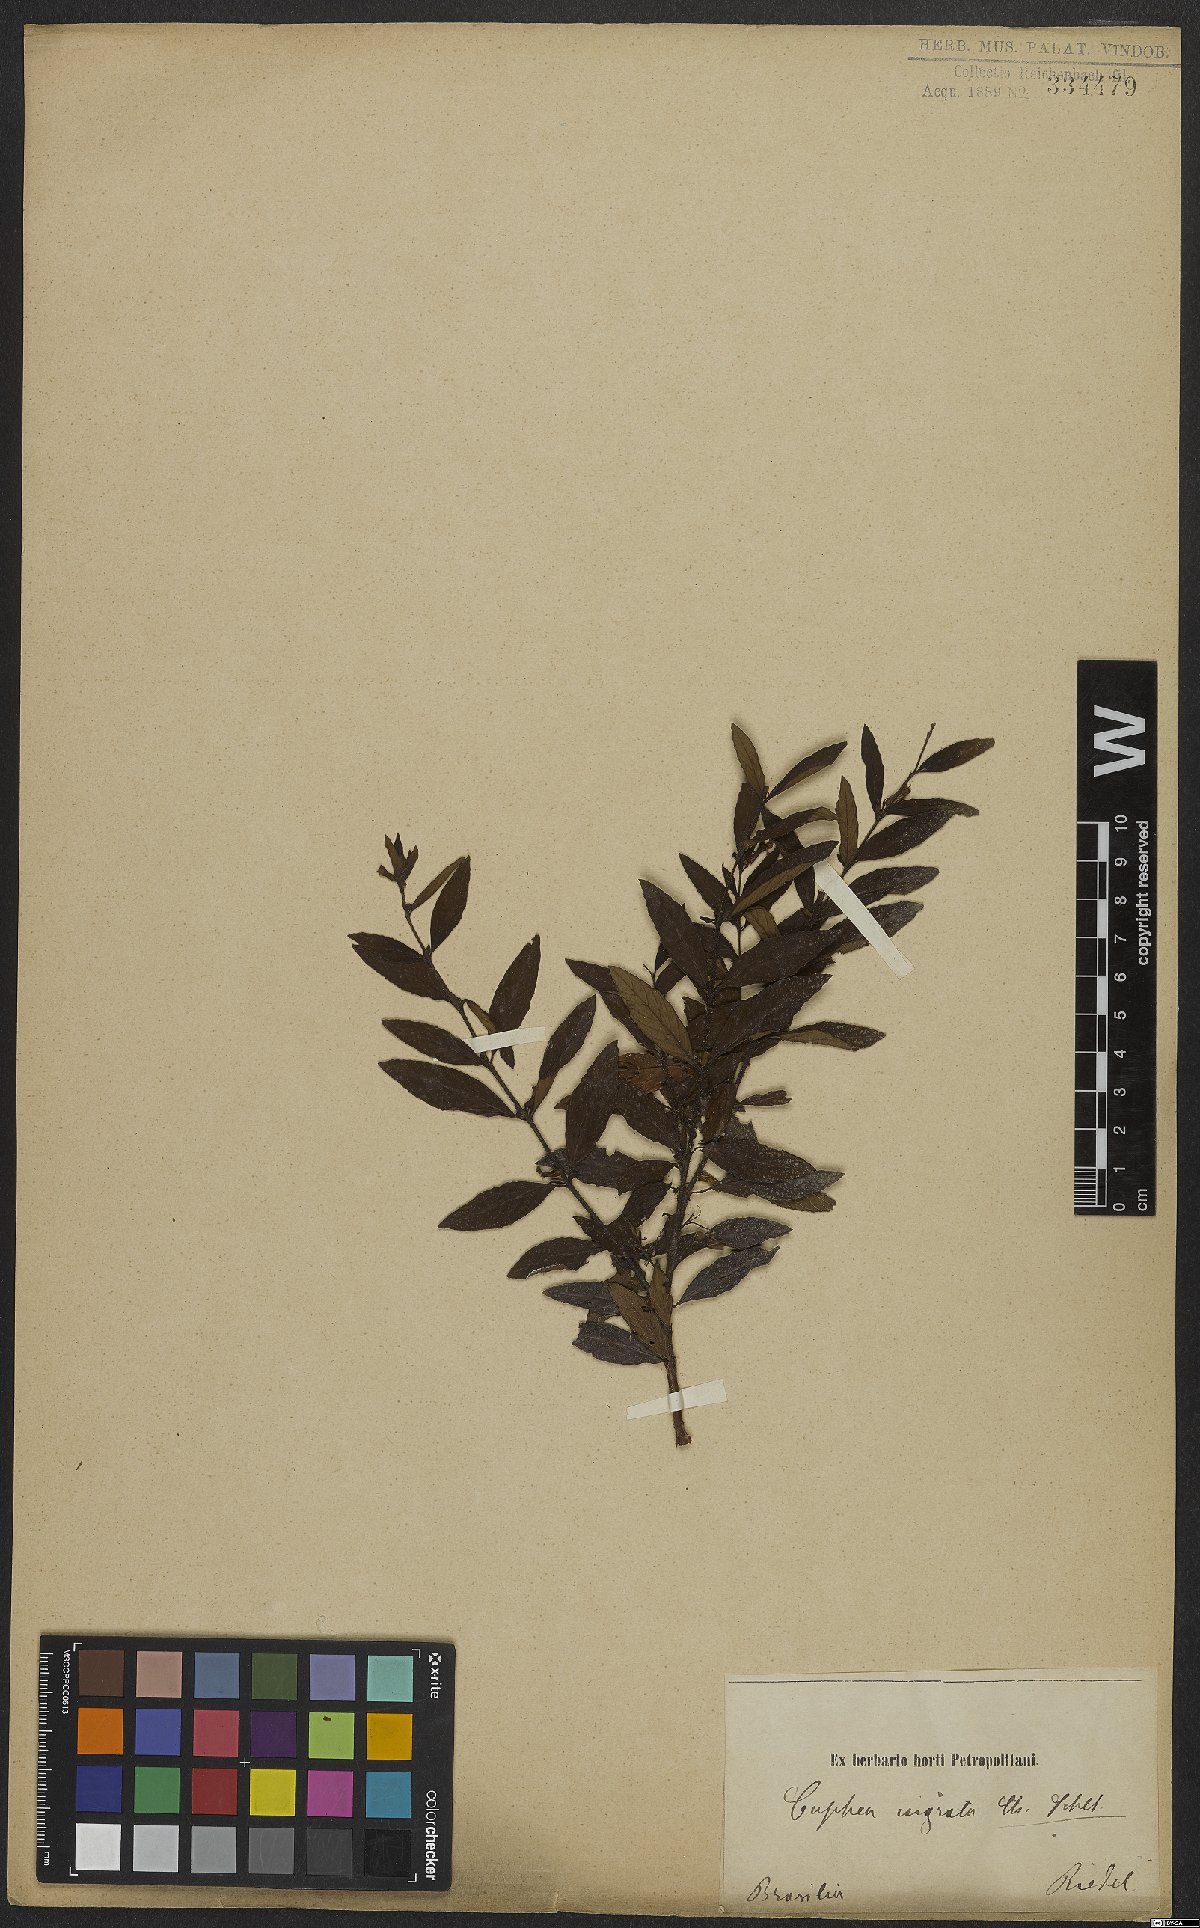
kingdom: Plantae
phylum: Tracheophyta
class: Magnoliopsida
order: Myrtales
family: Lythraceae
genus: Cuphea
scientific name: Cuphea ingrata
